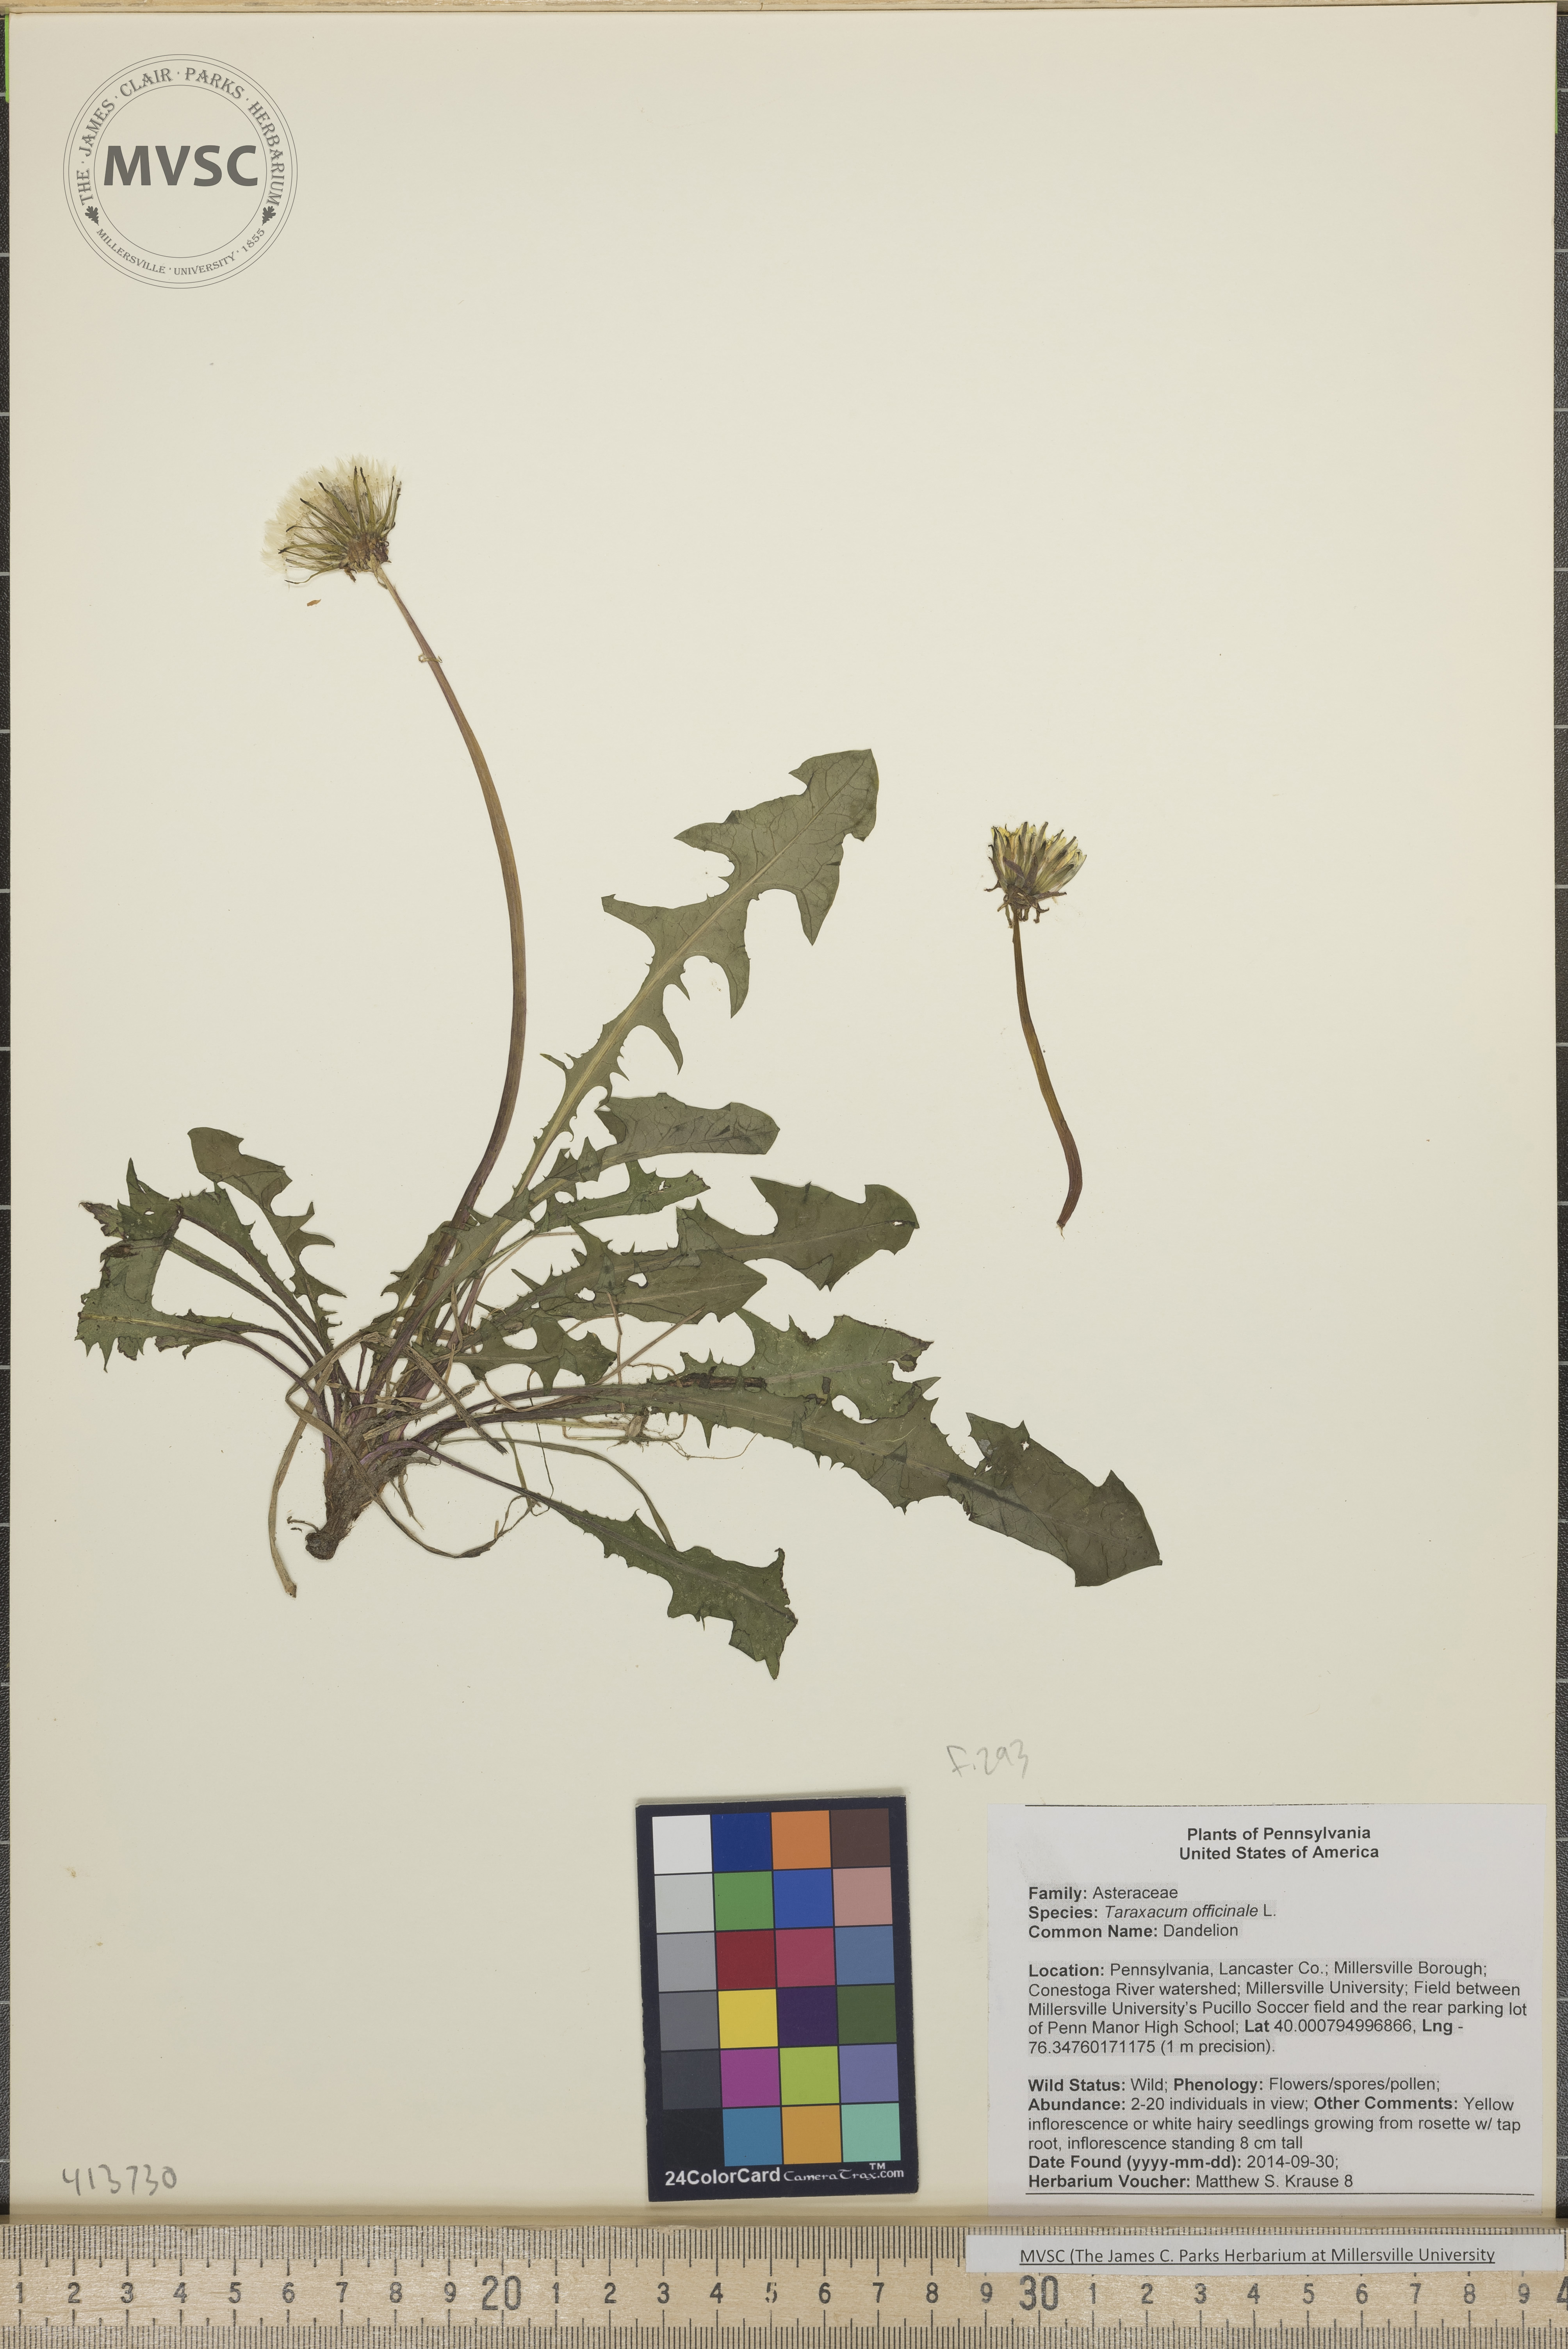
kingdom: Plantae
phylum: Tracheophyta
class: Magnoliopsida
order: Asterales
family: Asteraceae
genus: Taraxacum
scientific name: Taraxacum officinale
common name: Dandelion
